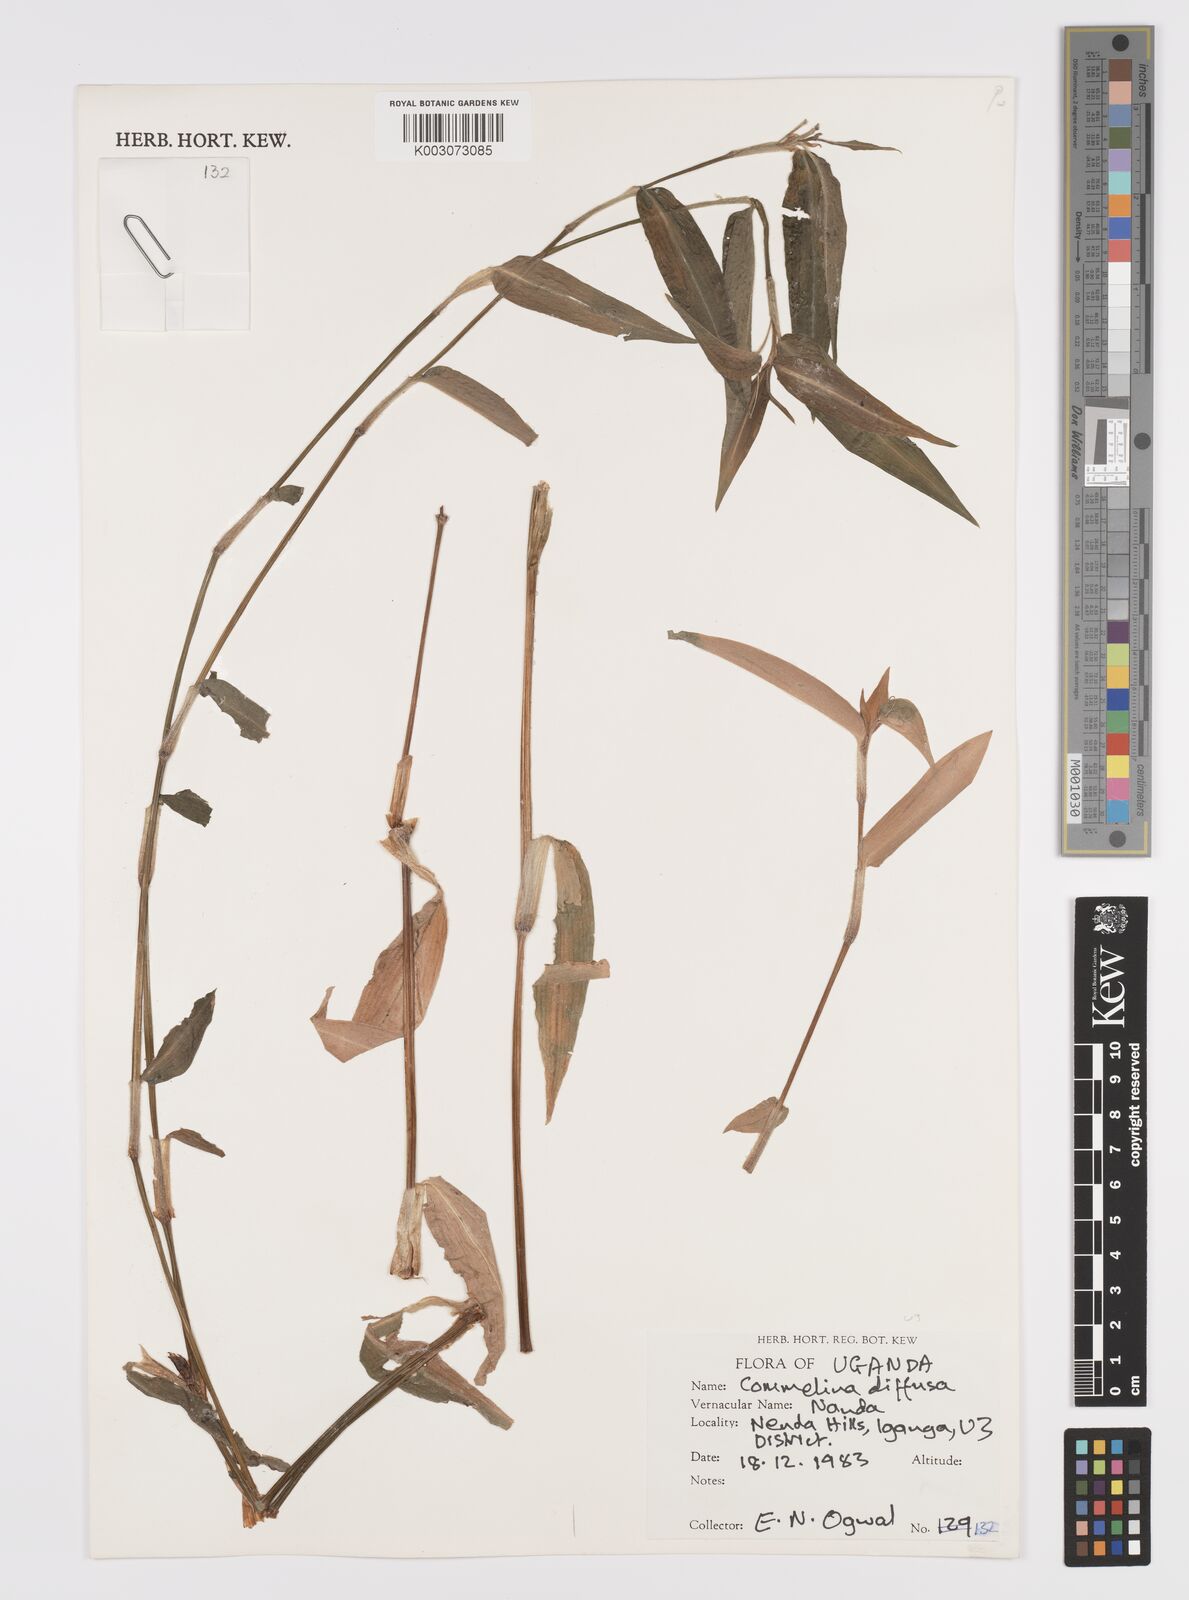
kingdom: Plantae
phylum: Tracheophyta
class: Liliopsida
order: Commelinales
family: Commelinaceae
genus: Commelina
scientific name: Commelina diffusa
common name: Climbing dayflower
